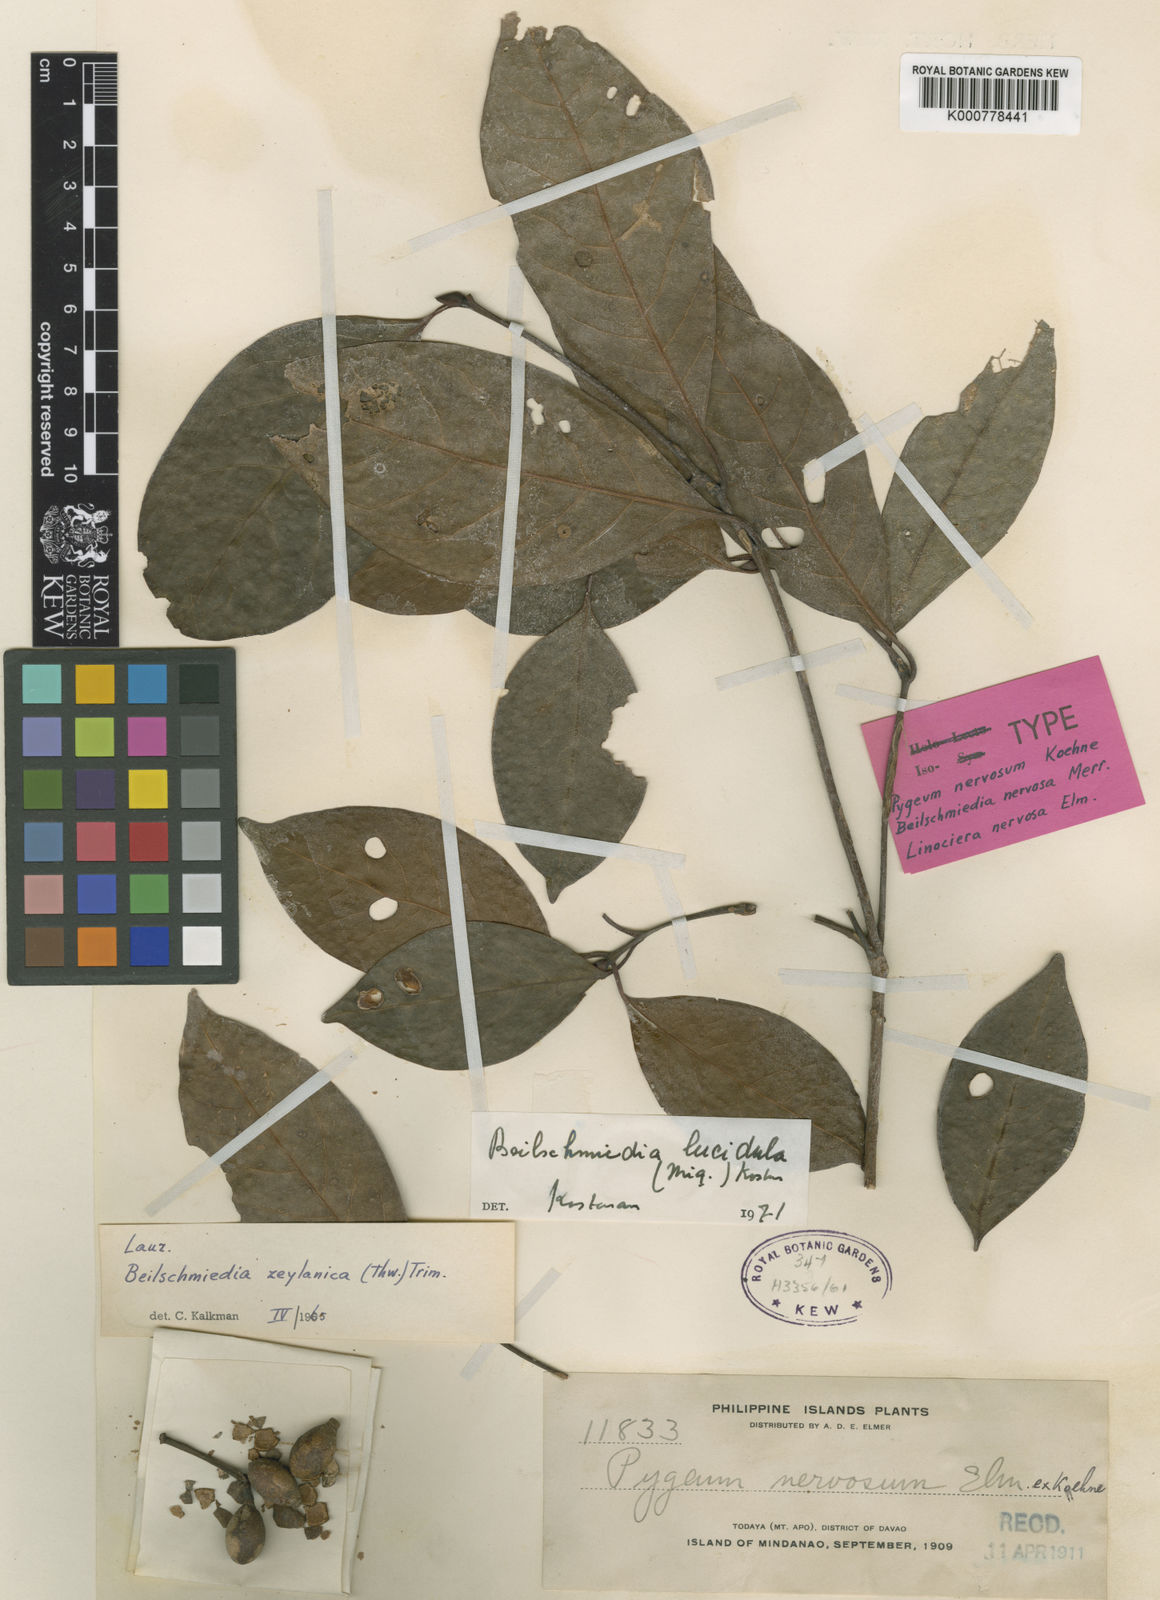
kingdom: Plantae
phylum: Tracheophyta
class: Magnoliopsida
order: Laurales
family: Lauraceae
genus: Beilschmiedia
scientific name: Beilschmiedia lucidula
